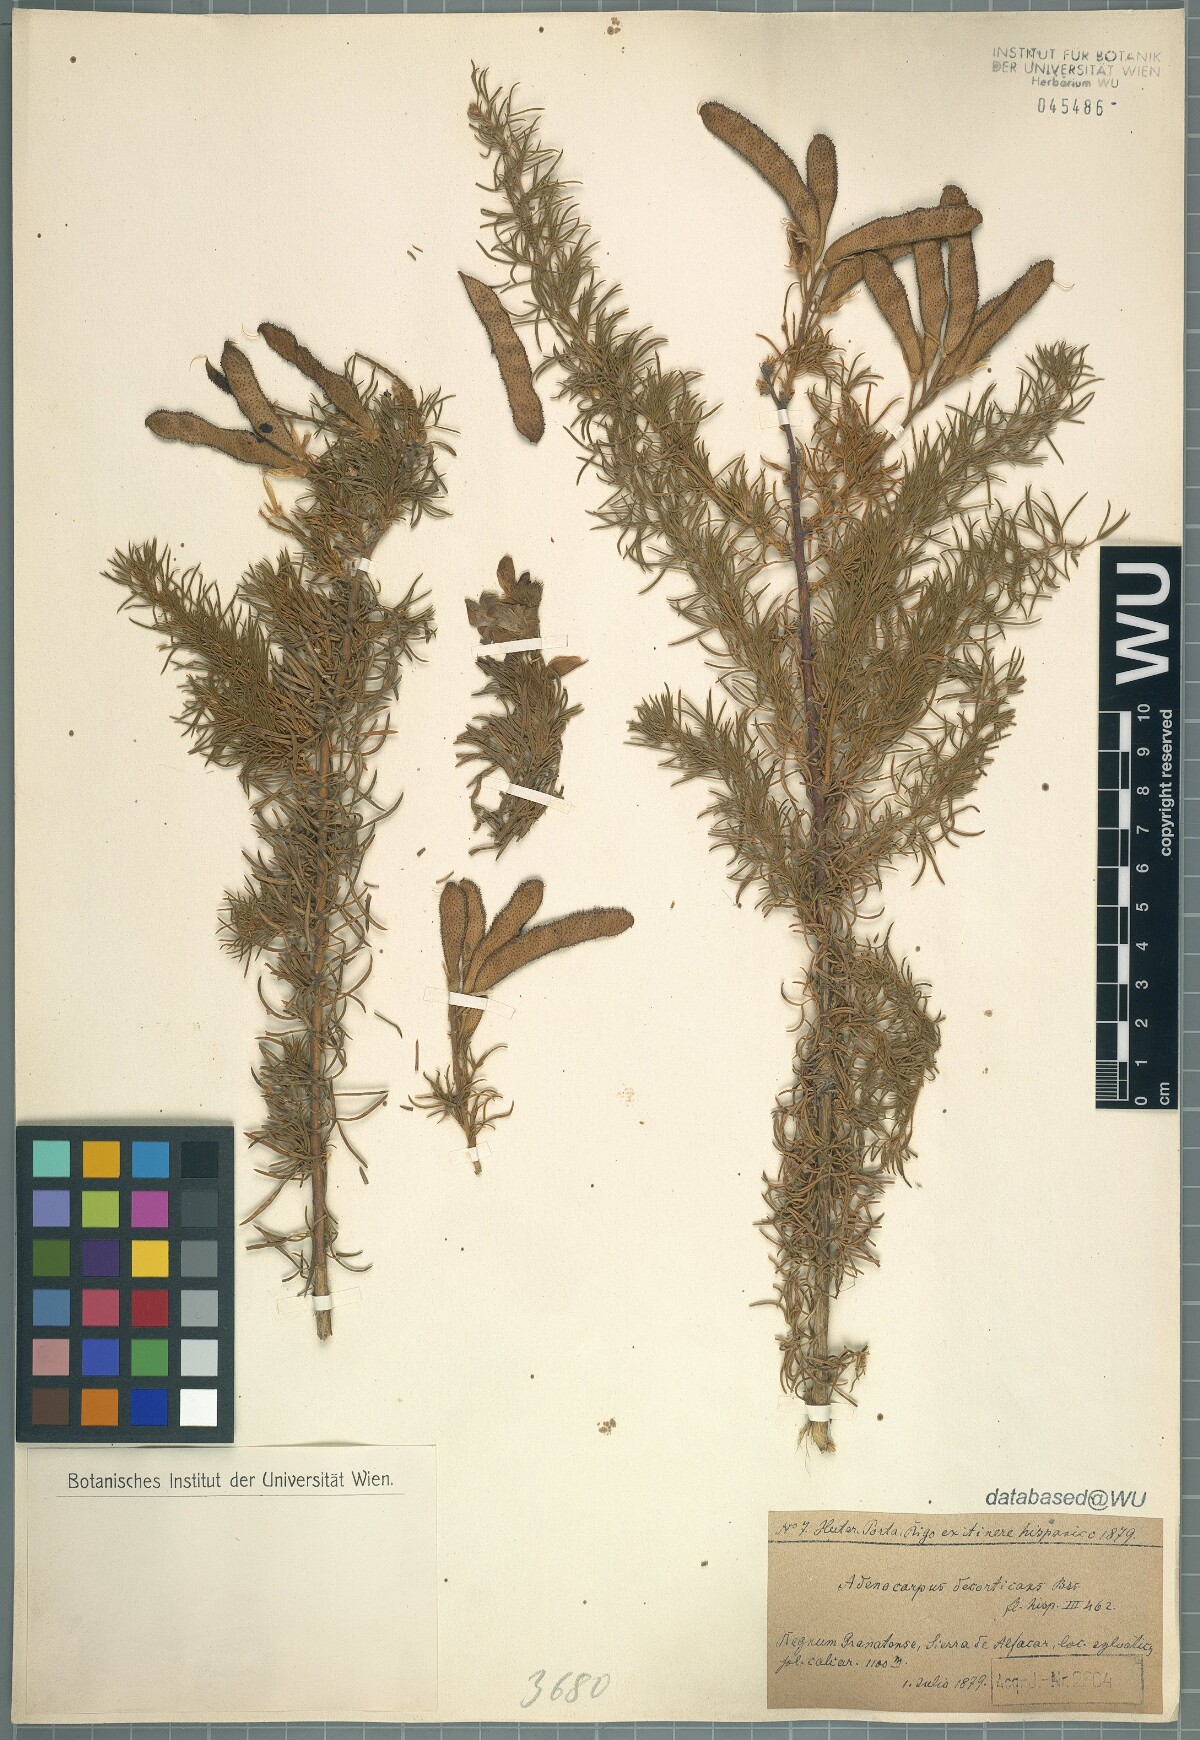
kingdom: Plantae
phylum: Tracheophyta
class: Magnoliopsida
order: Fabales
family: Fabaceae
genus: Adenocarpus
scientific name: Adenocarpus decorticans
